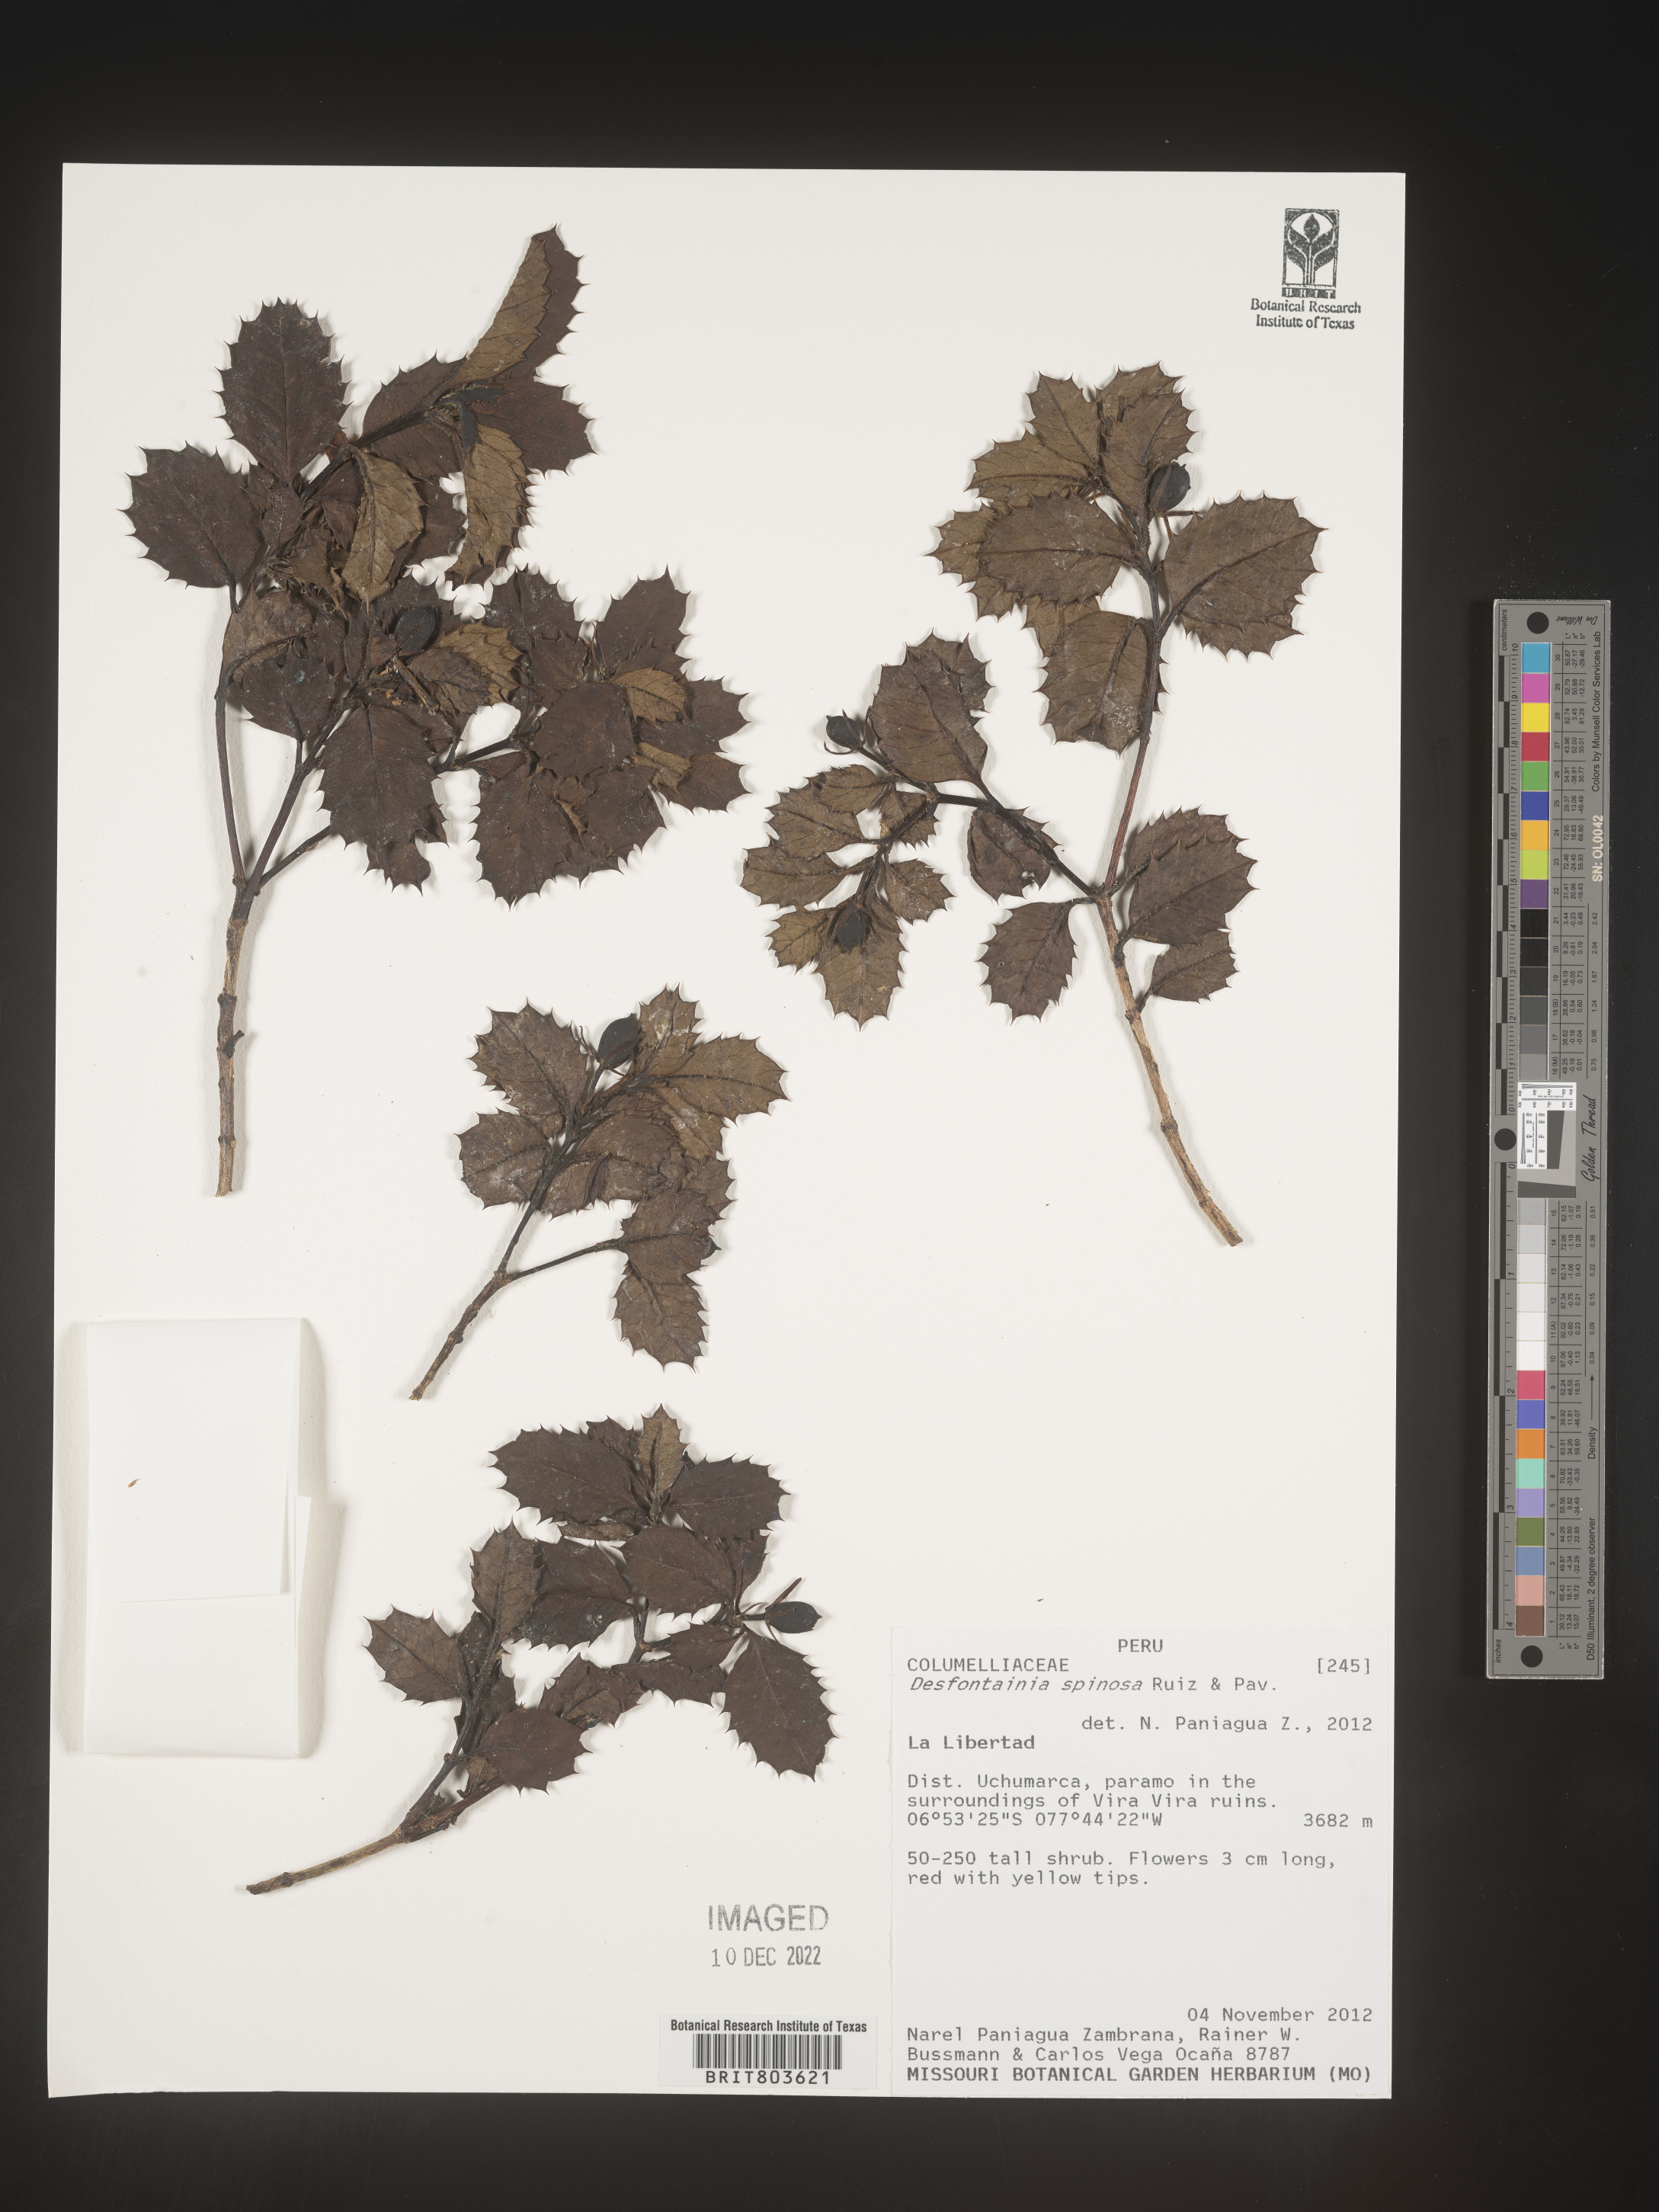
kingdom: Plantae
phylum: Tracheophyta
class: Magnoliopsida
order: Bruniales
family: Columelliaceae
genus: Desfontainia
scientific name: Desfontainia
